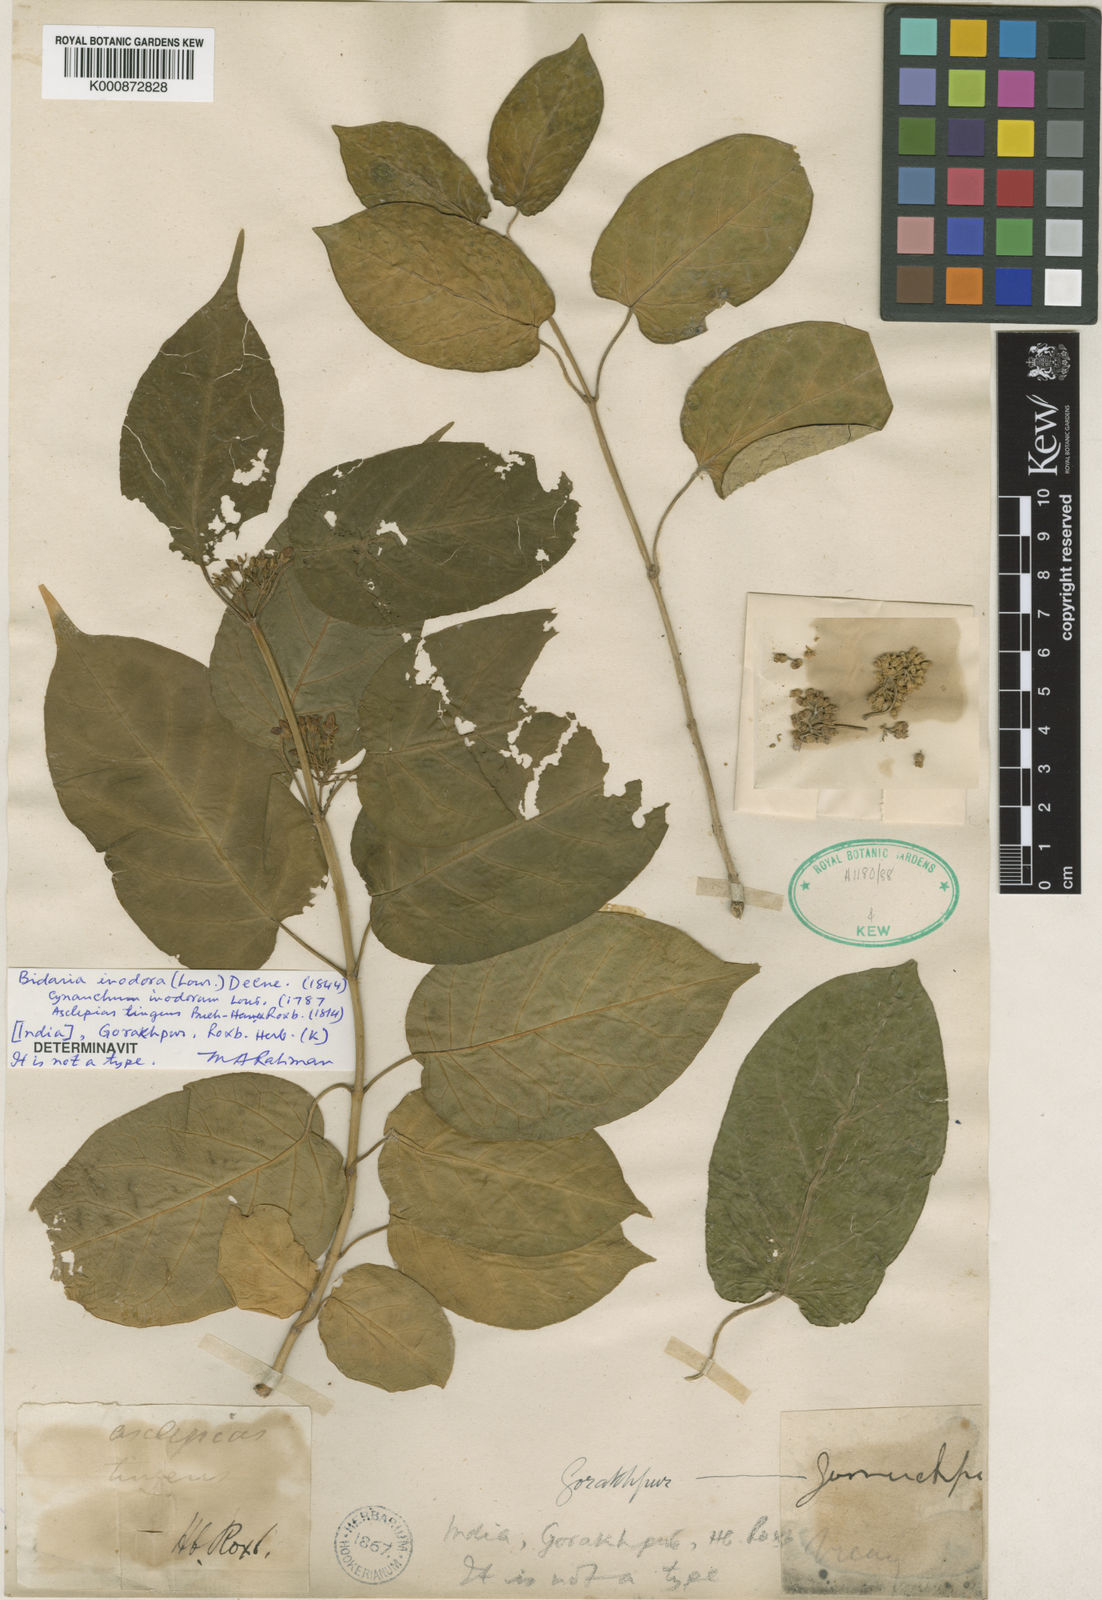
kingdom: Plantae
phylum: Tracheophyta
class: Magnoliopsida
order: Gentianales
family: Apocynaceae
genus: Gymnema
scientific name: Gymnema inodorum
